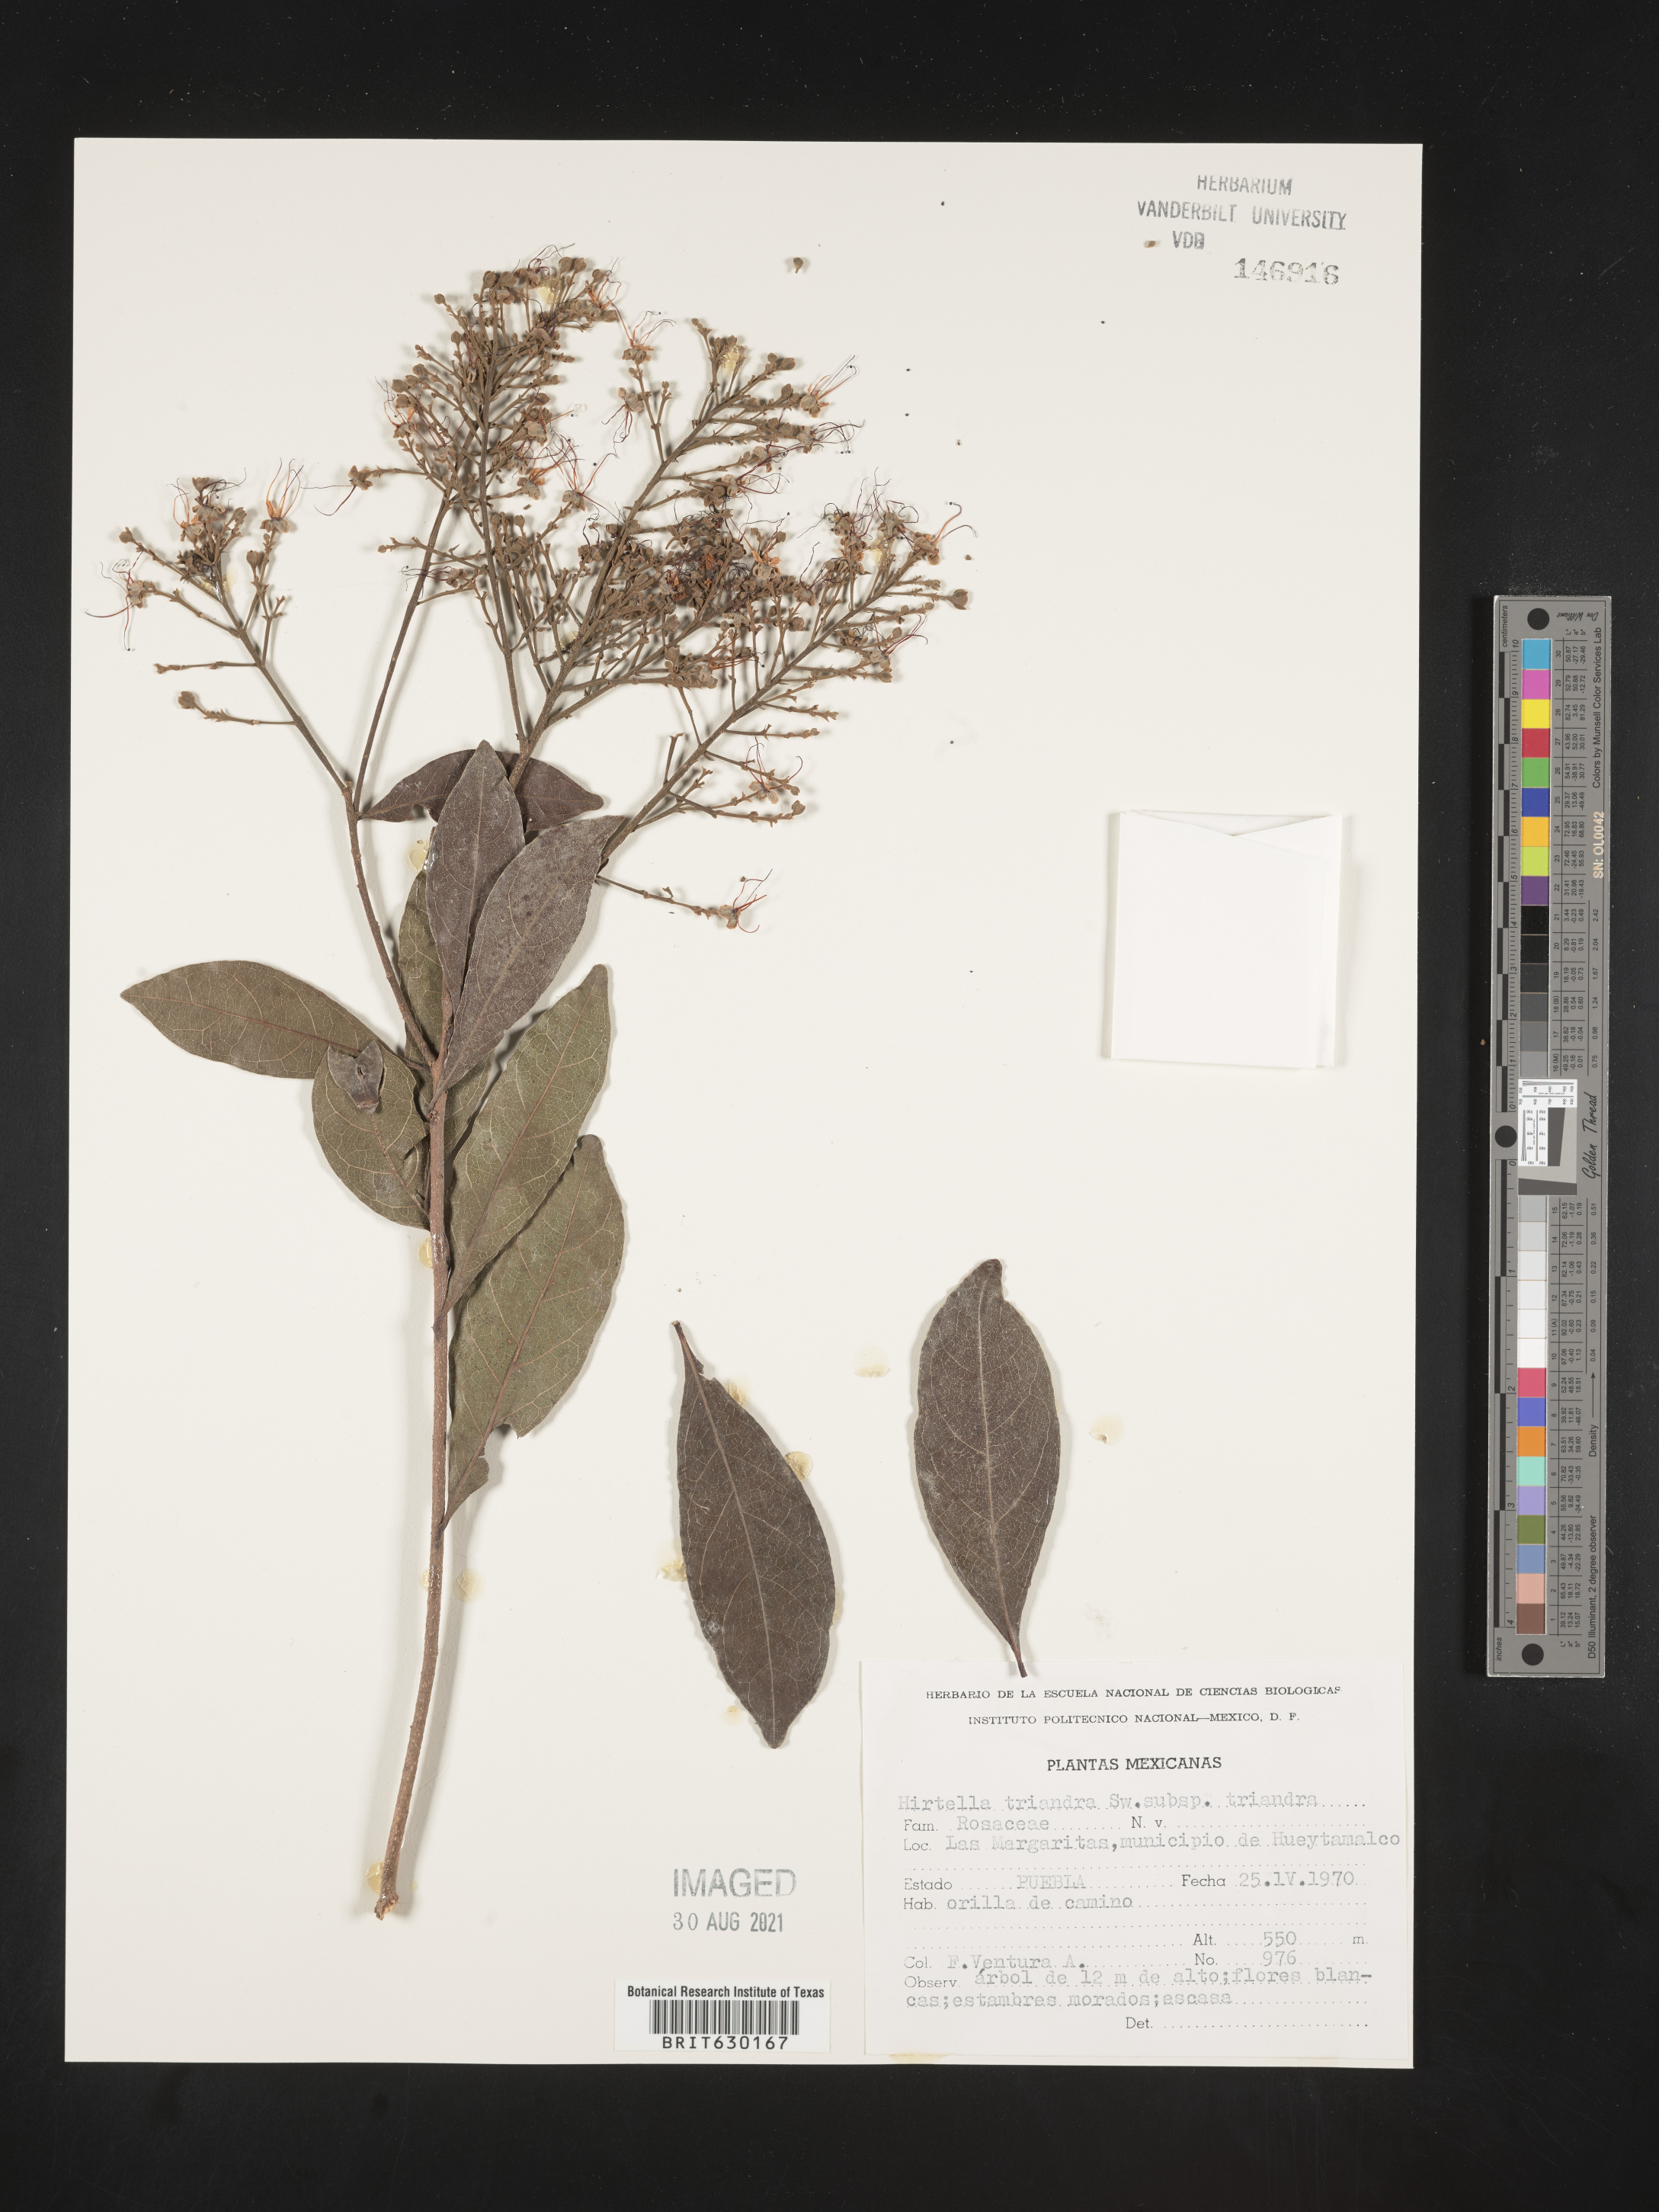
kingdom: Plantae
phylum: Tracheophyta
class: Magnoliopsida
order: Malpighiales
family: Chrysobalanaceae
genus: Hirtella
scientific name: Hirtella triandra
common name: Hairy plum
